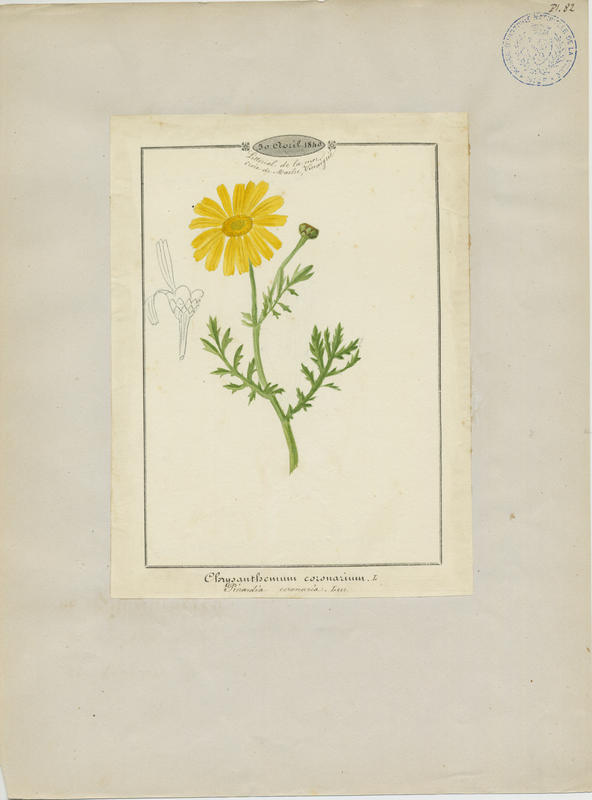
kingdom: Plantae
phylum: Tracheophyta
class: Magnoliopsida
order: Asterales
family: Asteraceae
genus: Glebionis
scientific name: Glebionis coronaria
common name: Crowndaisy
